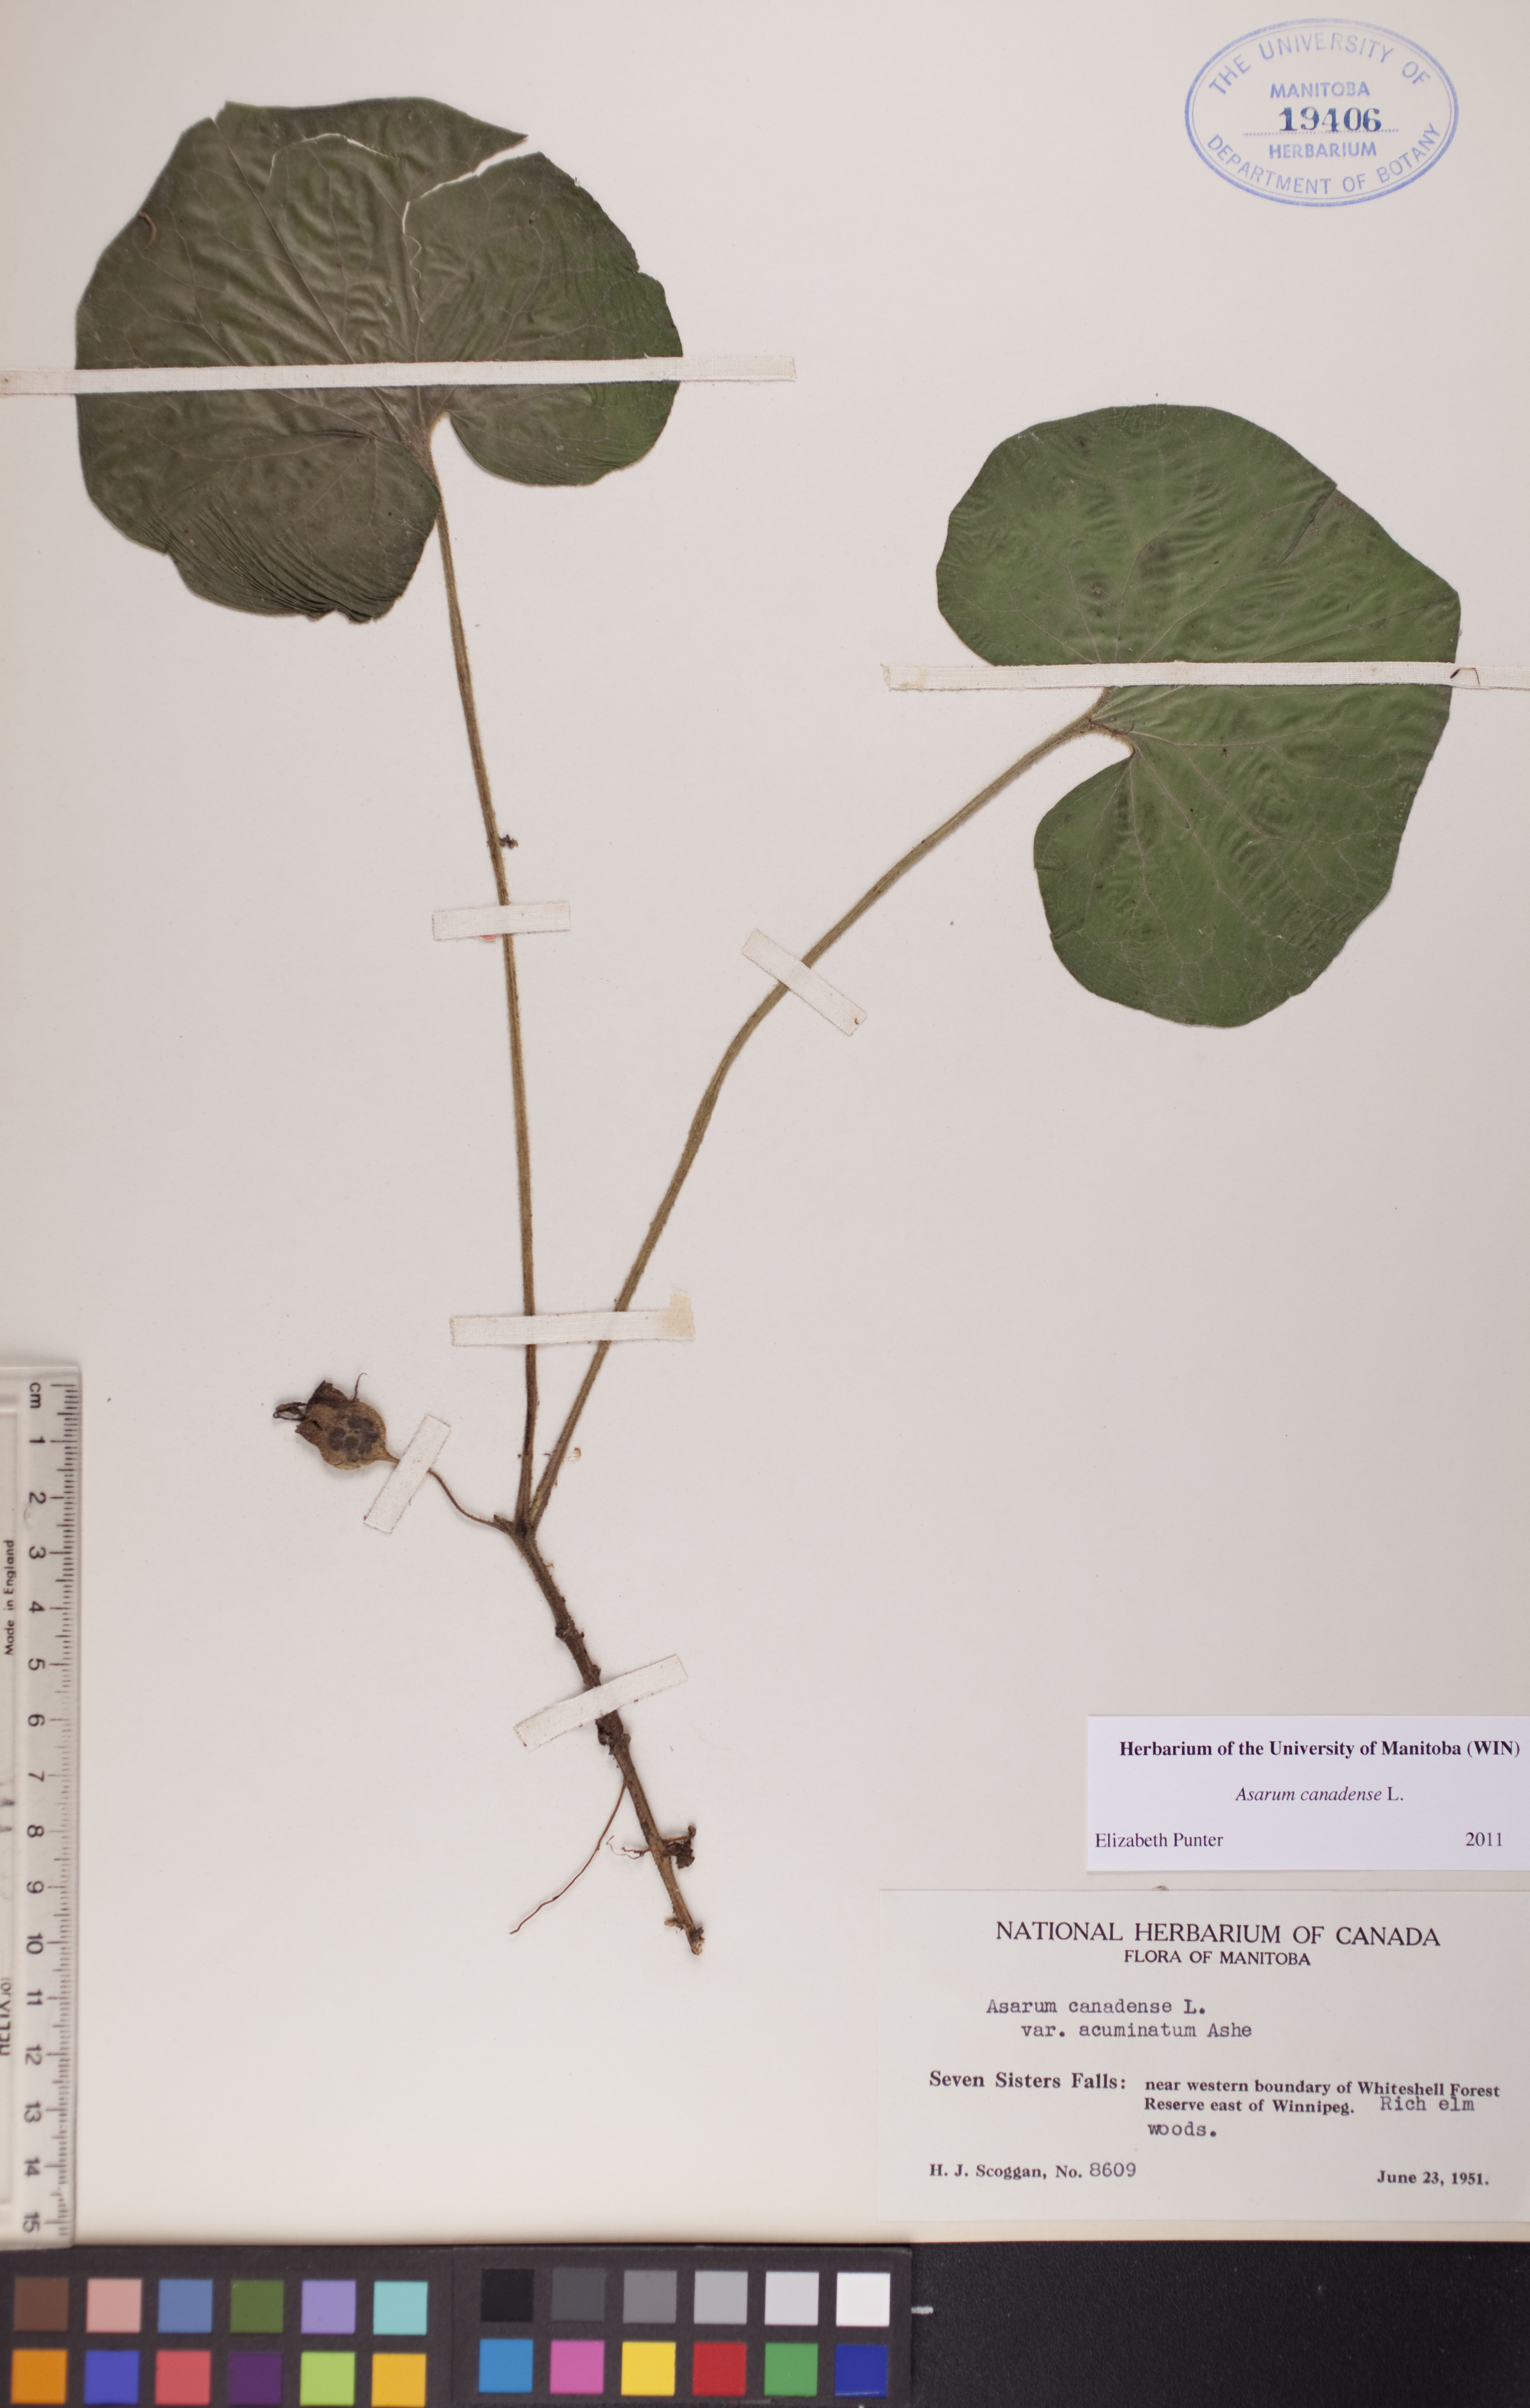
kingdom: Plantae
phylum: Tracheophyta
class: Magnoliopsida
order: Piperales
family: Aristolochiaceae
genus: Asarum
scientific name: Asarum canadense
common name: Wild ginger
